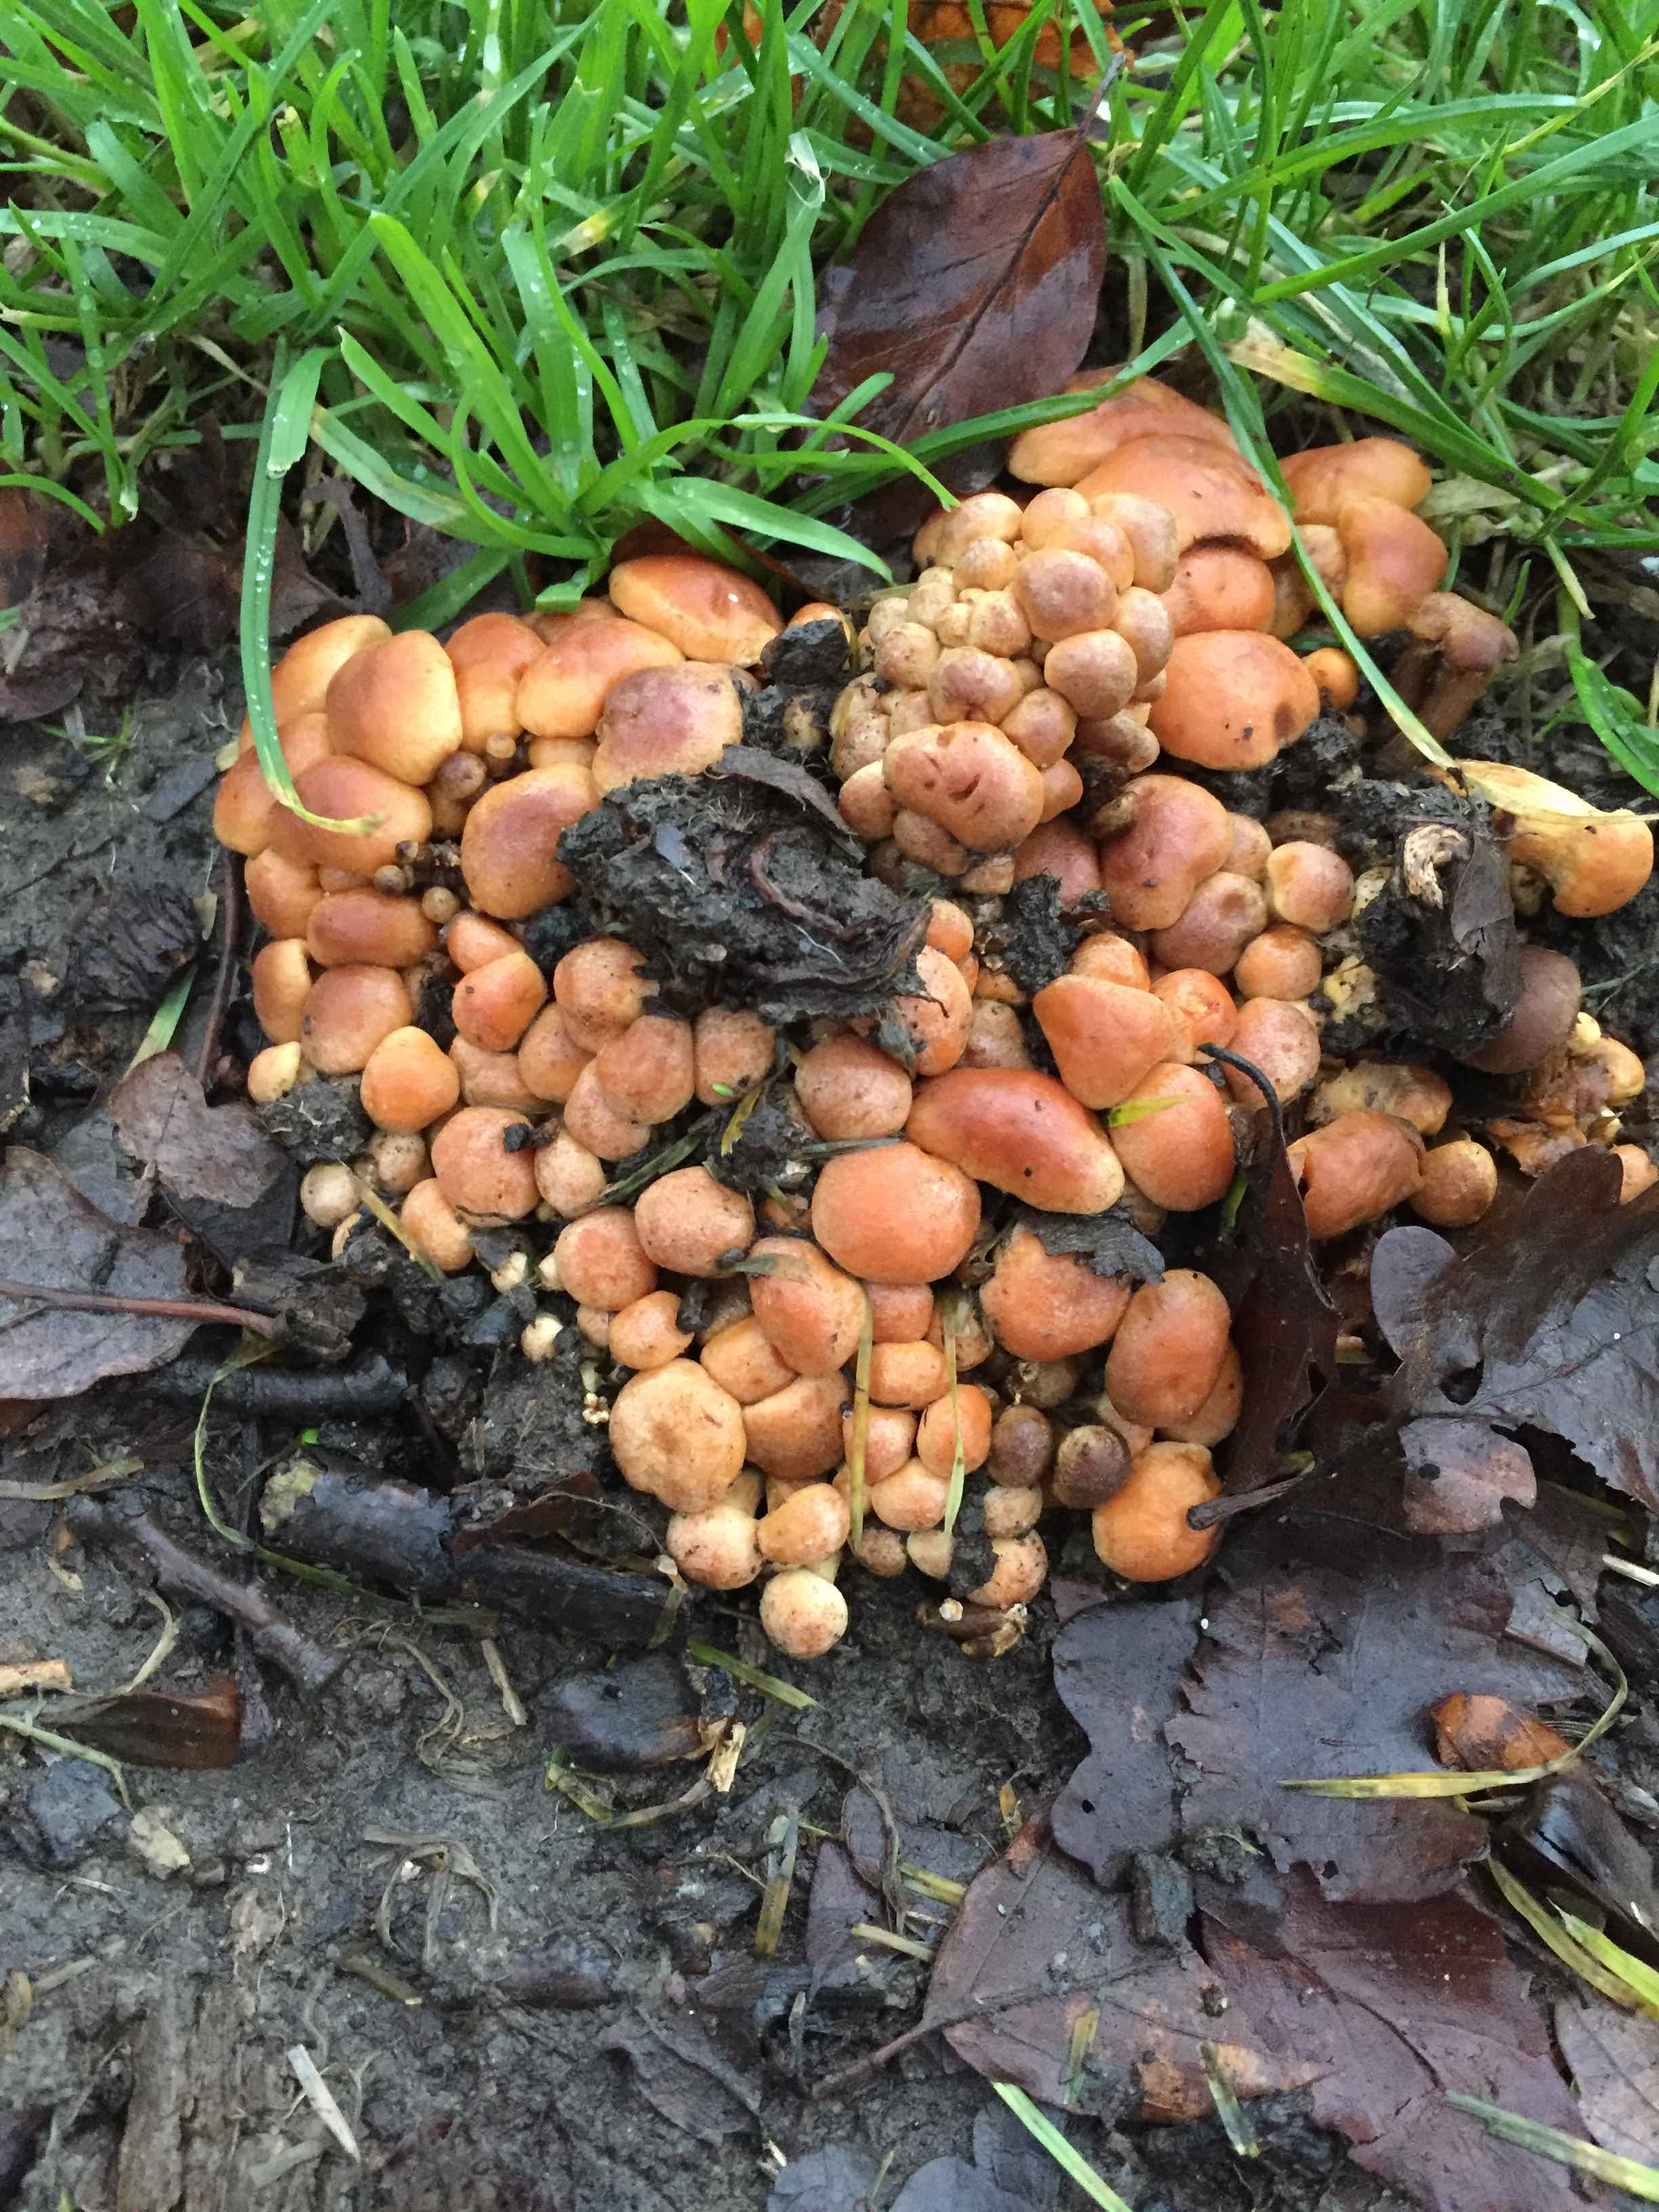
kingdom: Fungi
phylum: Basidiomycota
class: Agaricomycetes
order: Agaricales
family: Strophariaceae
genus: Hypholoma
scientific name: Hypholoma fasciculare
